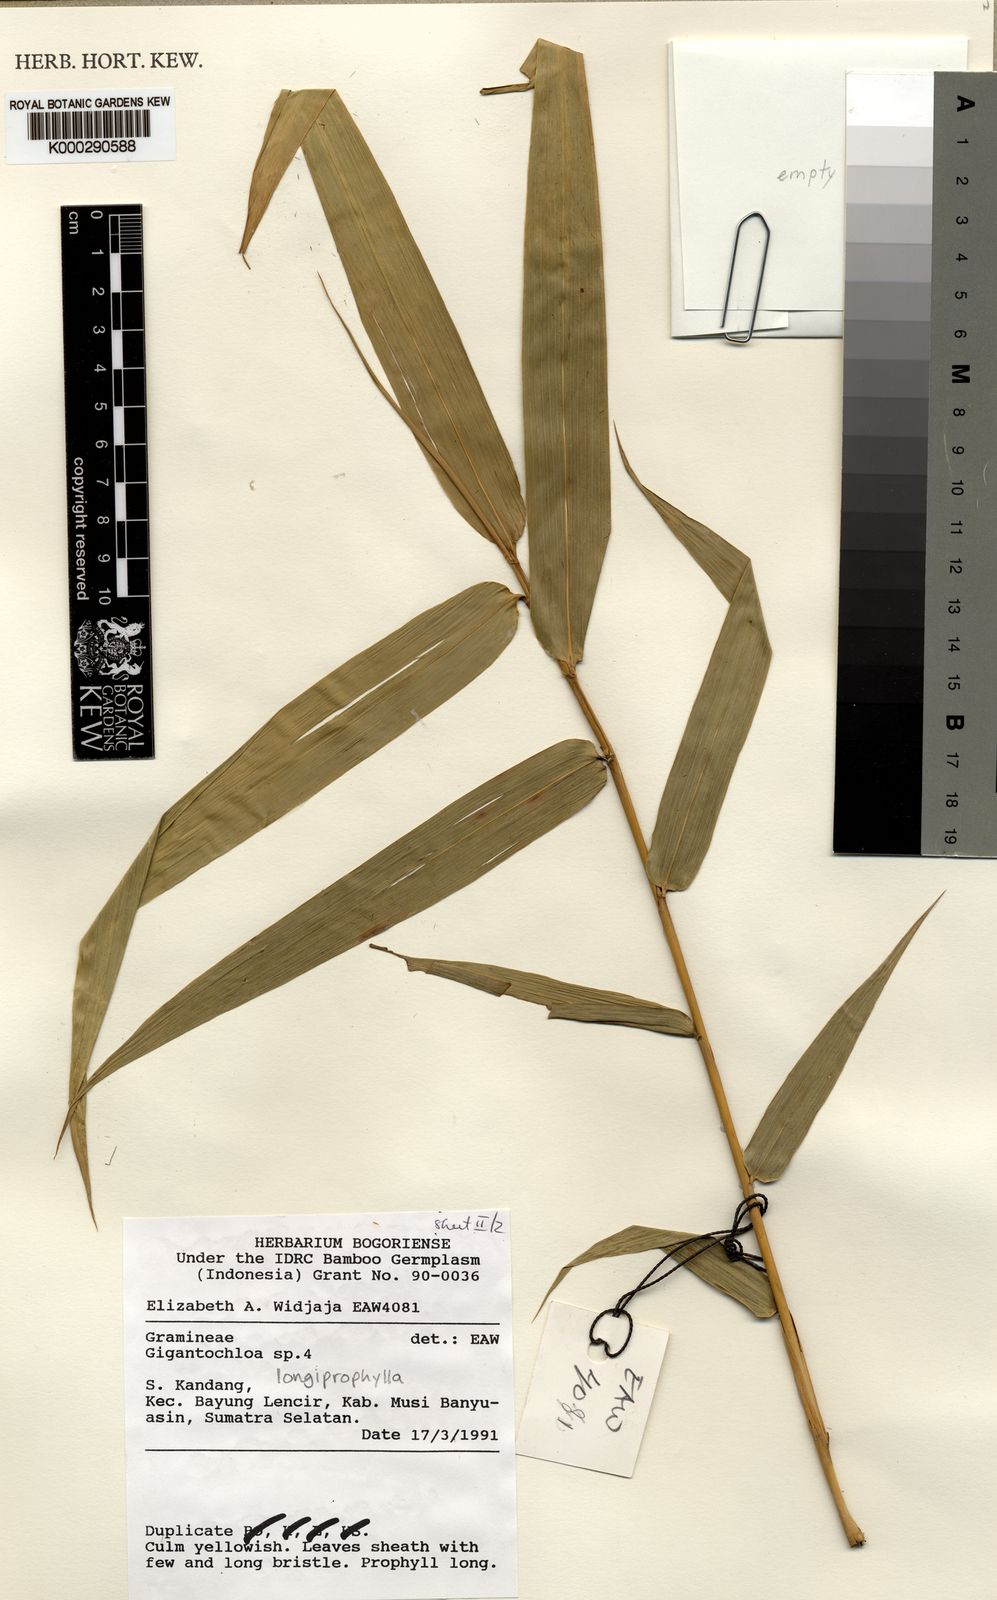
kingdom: Plantae
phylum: Tracheophyta
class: Liliopsida
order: Poales
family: Poaceae
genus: Gigantochloa
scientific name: Gigantochloa longiprophylla
